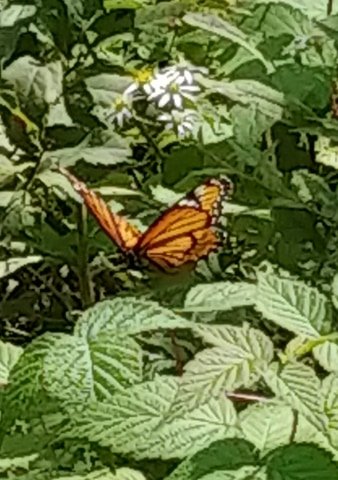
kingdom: Animalia
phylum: Arthropoda
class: Insecta
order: Lepidoptera
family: Nymphalidae
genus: Limenitis
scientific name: Limenitis archippus
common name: Viceroy
